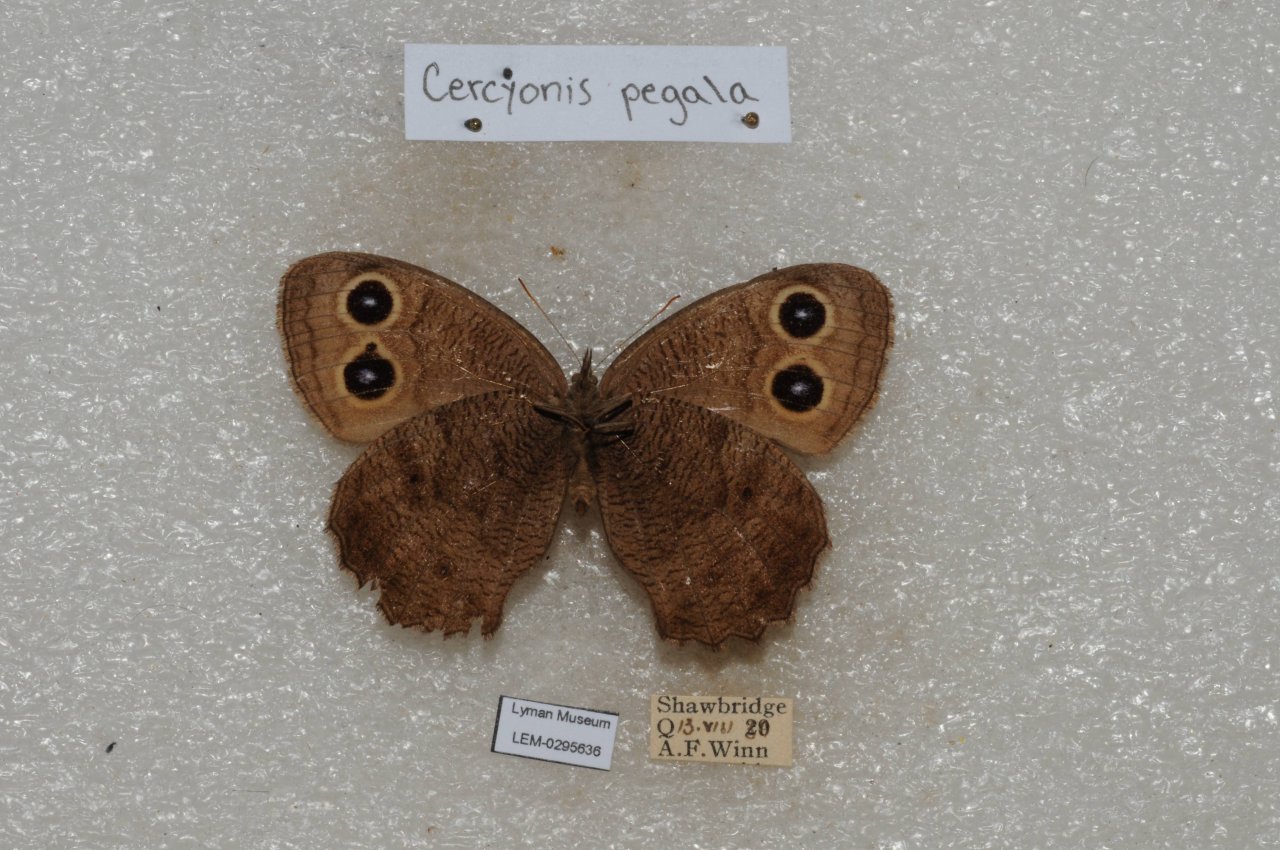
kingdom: Animalia
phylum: Arthropoda
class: Insecta
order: Lepidoptera
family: Nymphalidae
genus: Cercyonis
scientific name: Cercyonis pegala
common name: Common Wood-Nymph
